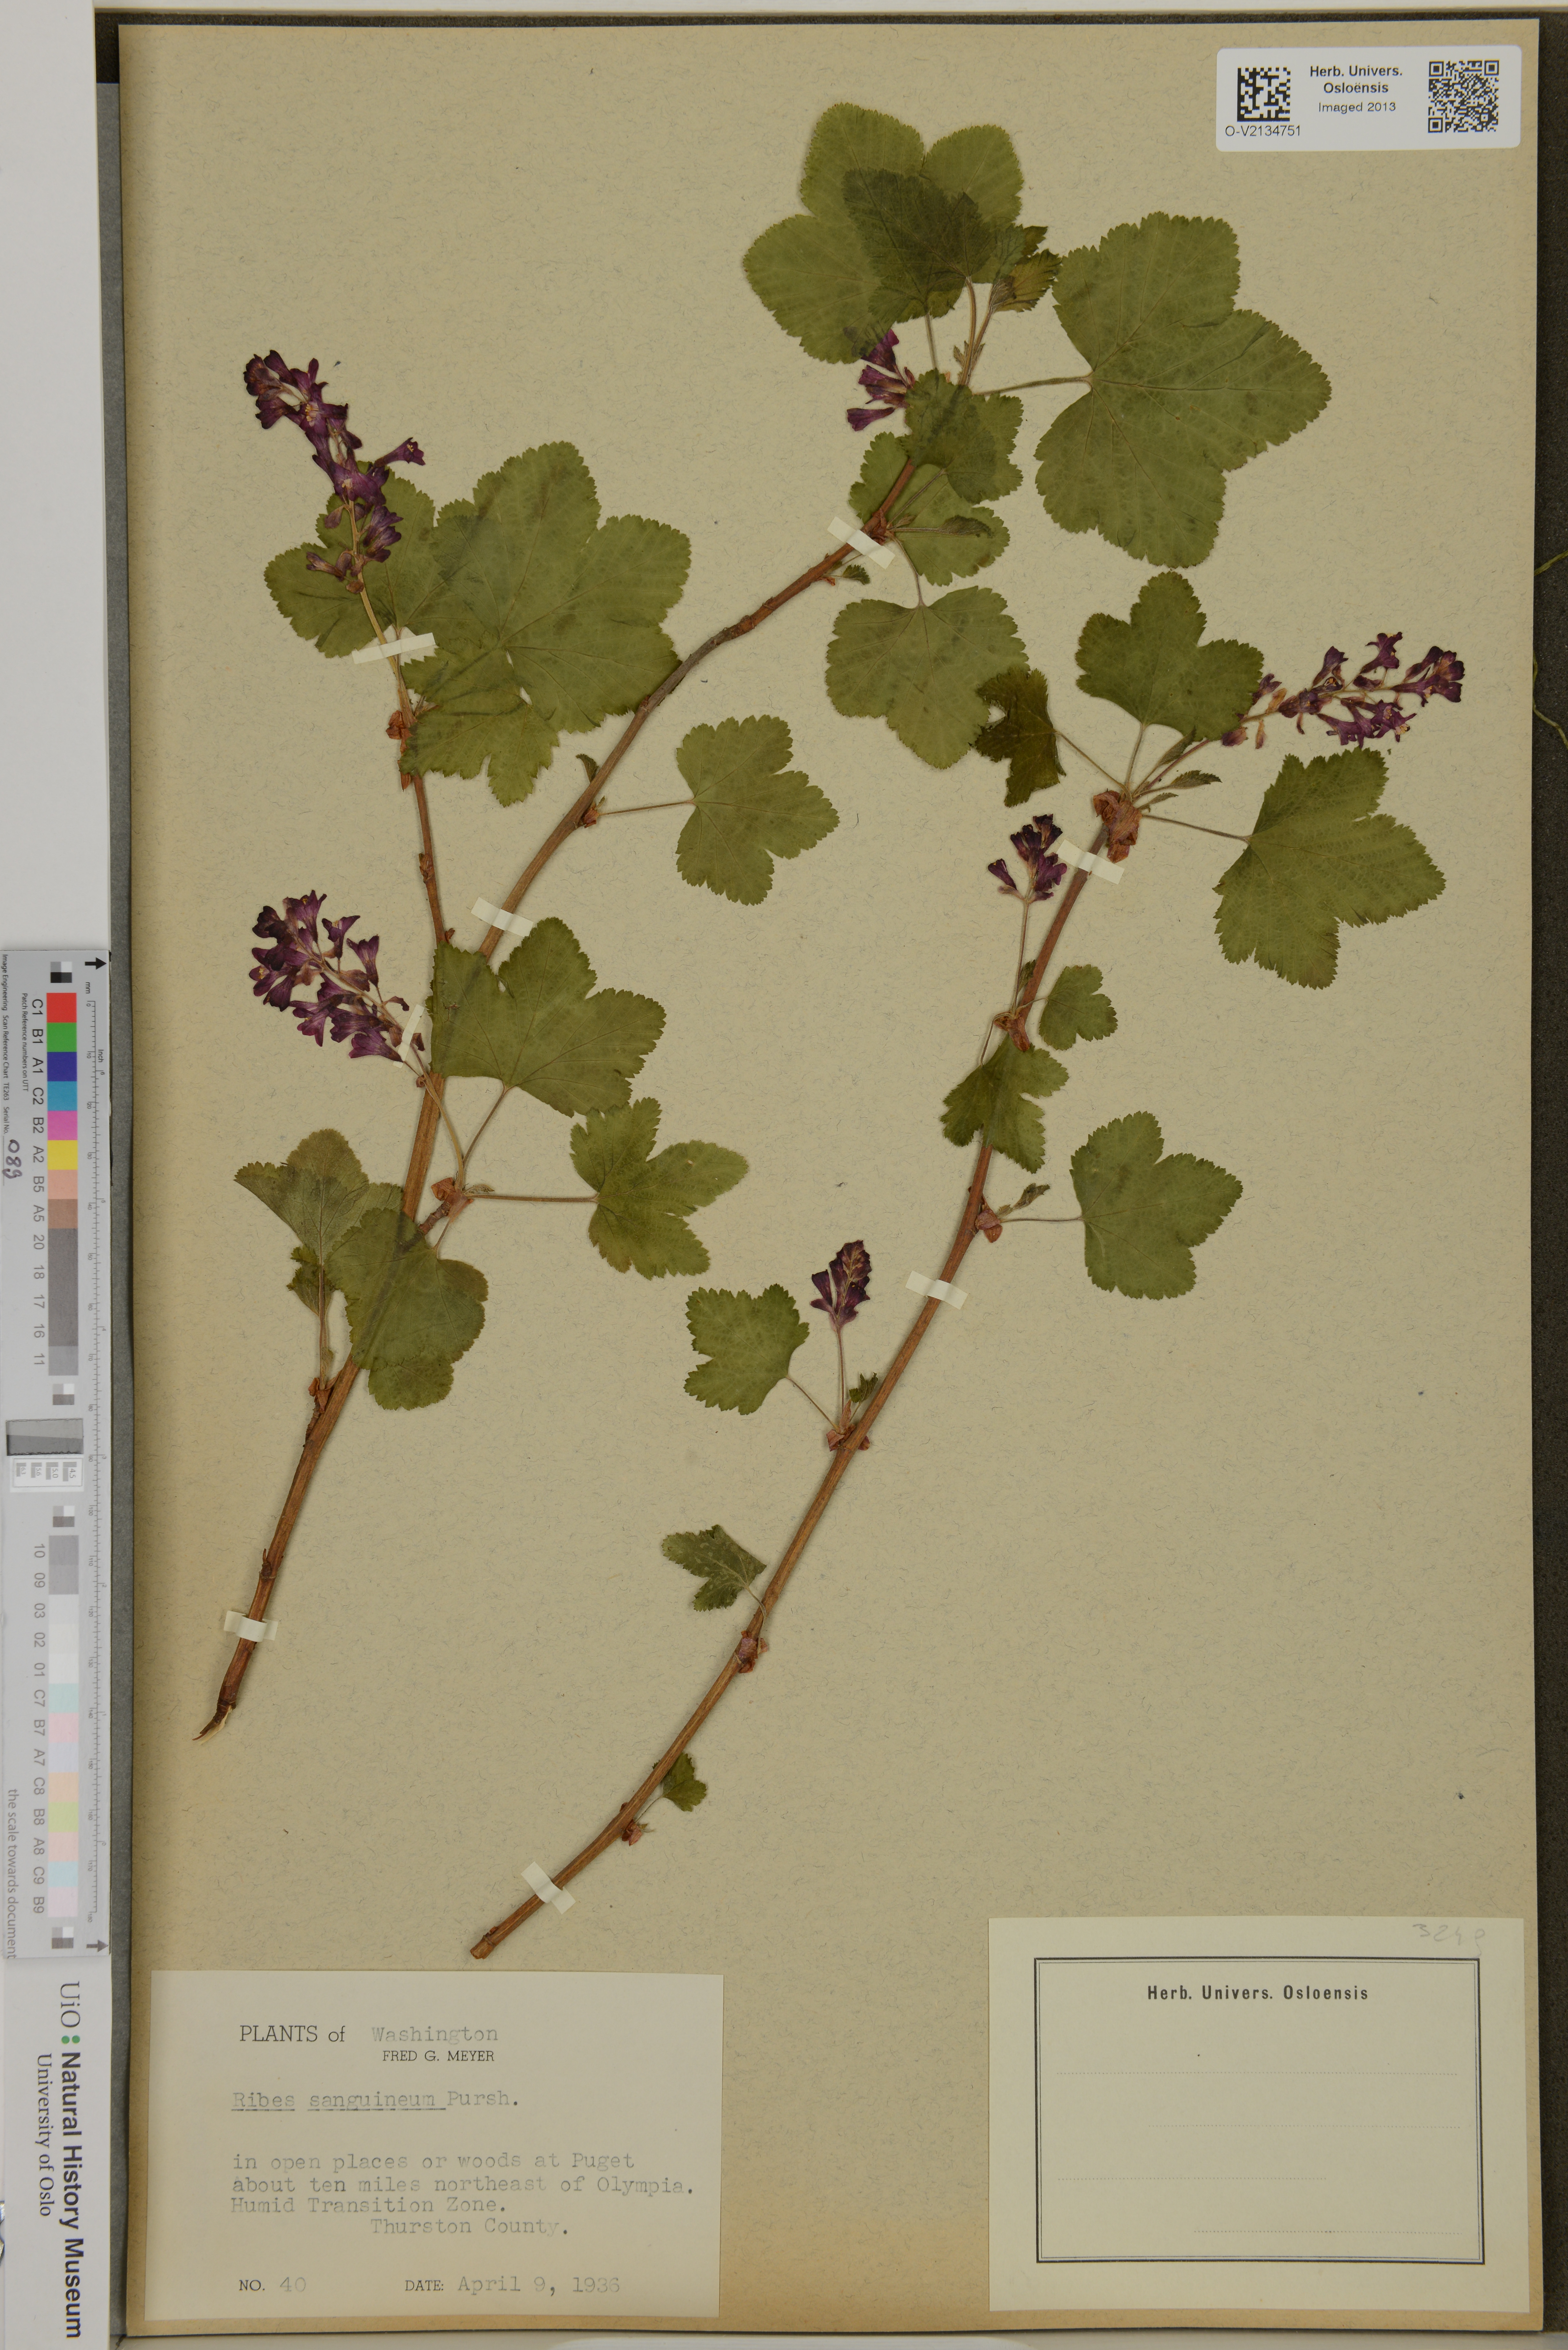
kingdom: Plantae
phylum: Tracheophyta
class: Magnoliopsida
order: Saxifragales
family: Grossulariaceae
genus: Ribes
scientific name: Ribes sanguineum
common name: Flowering currant
